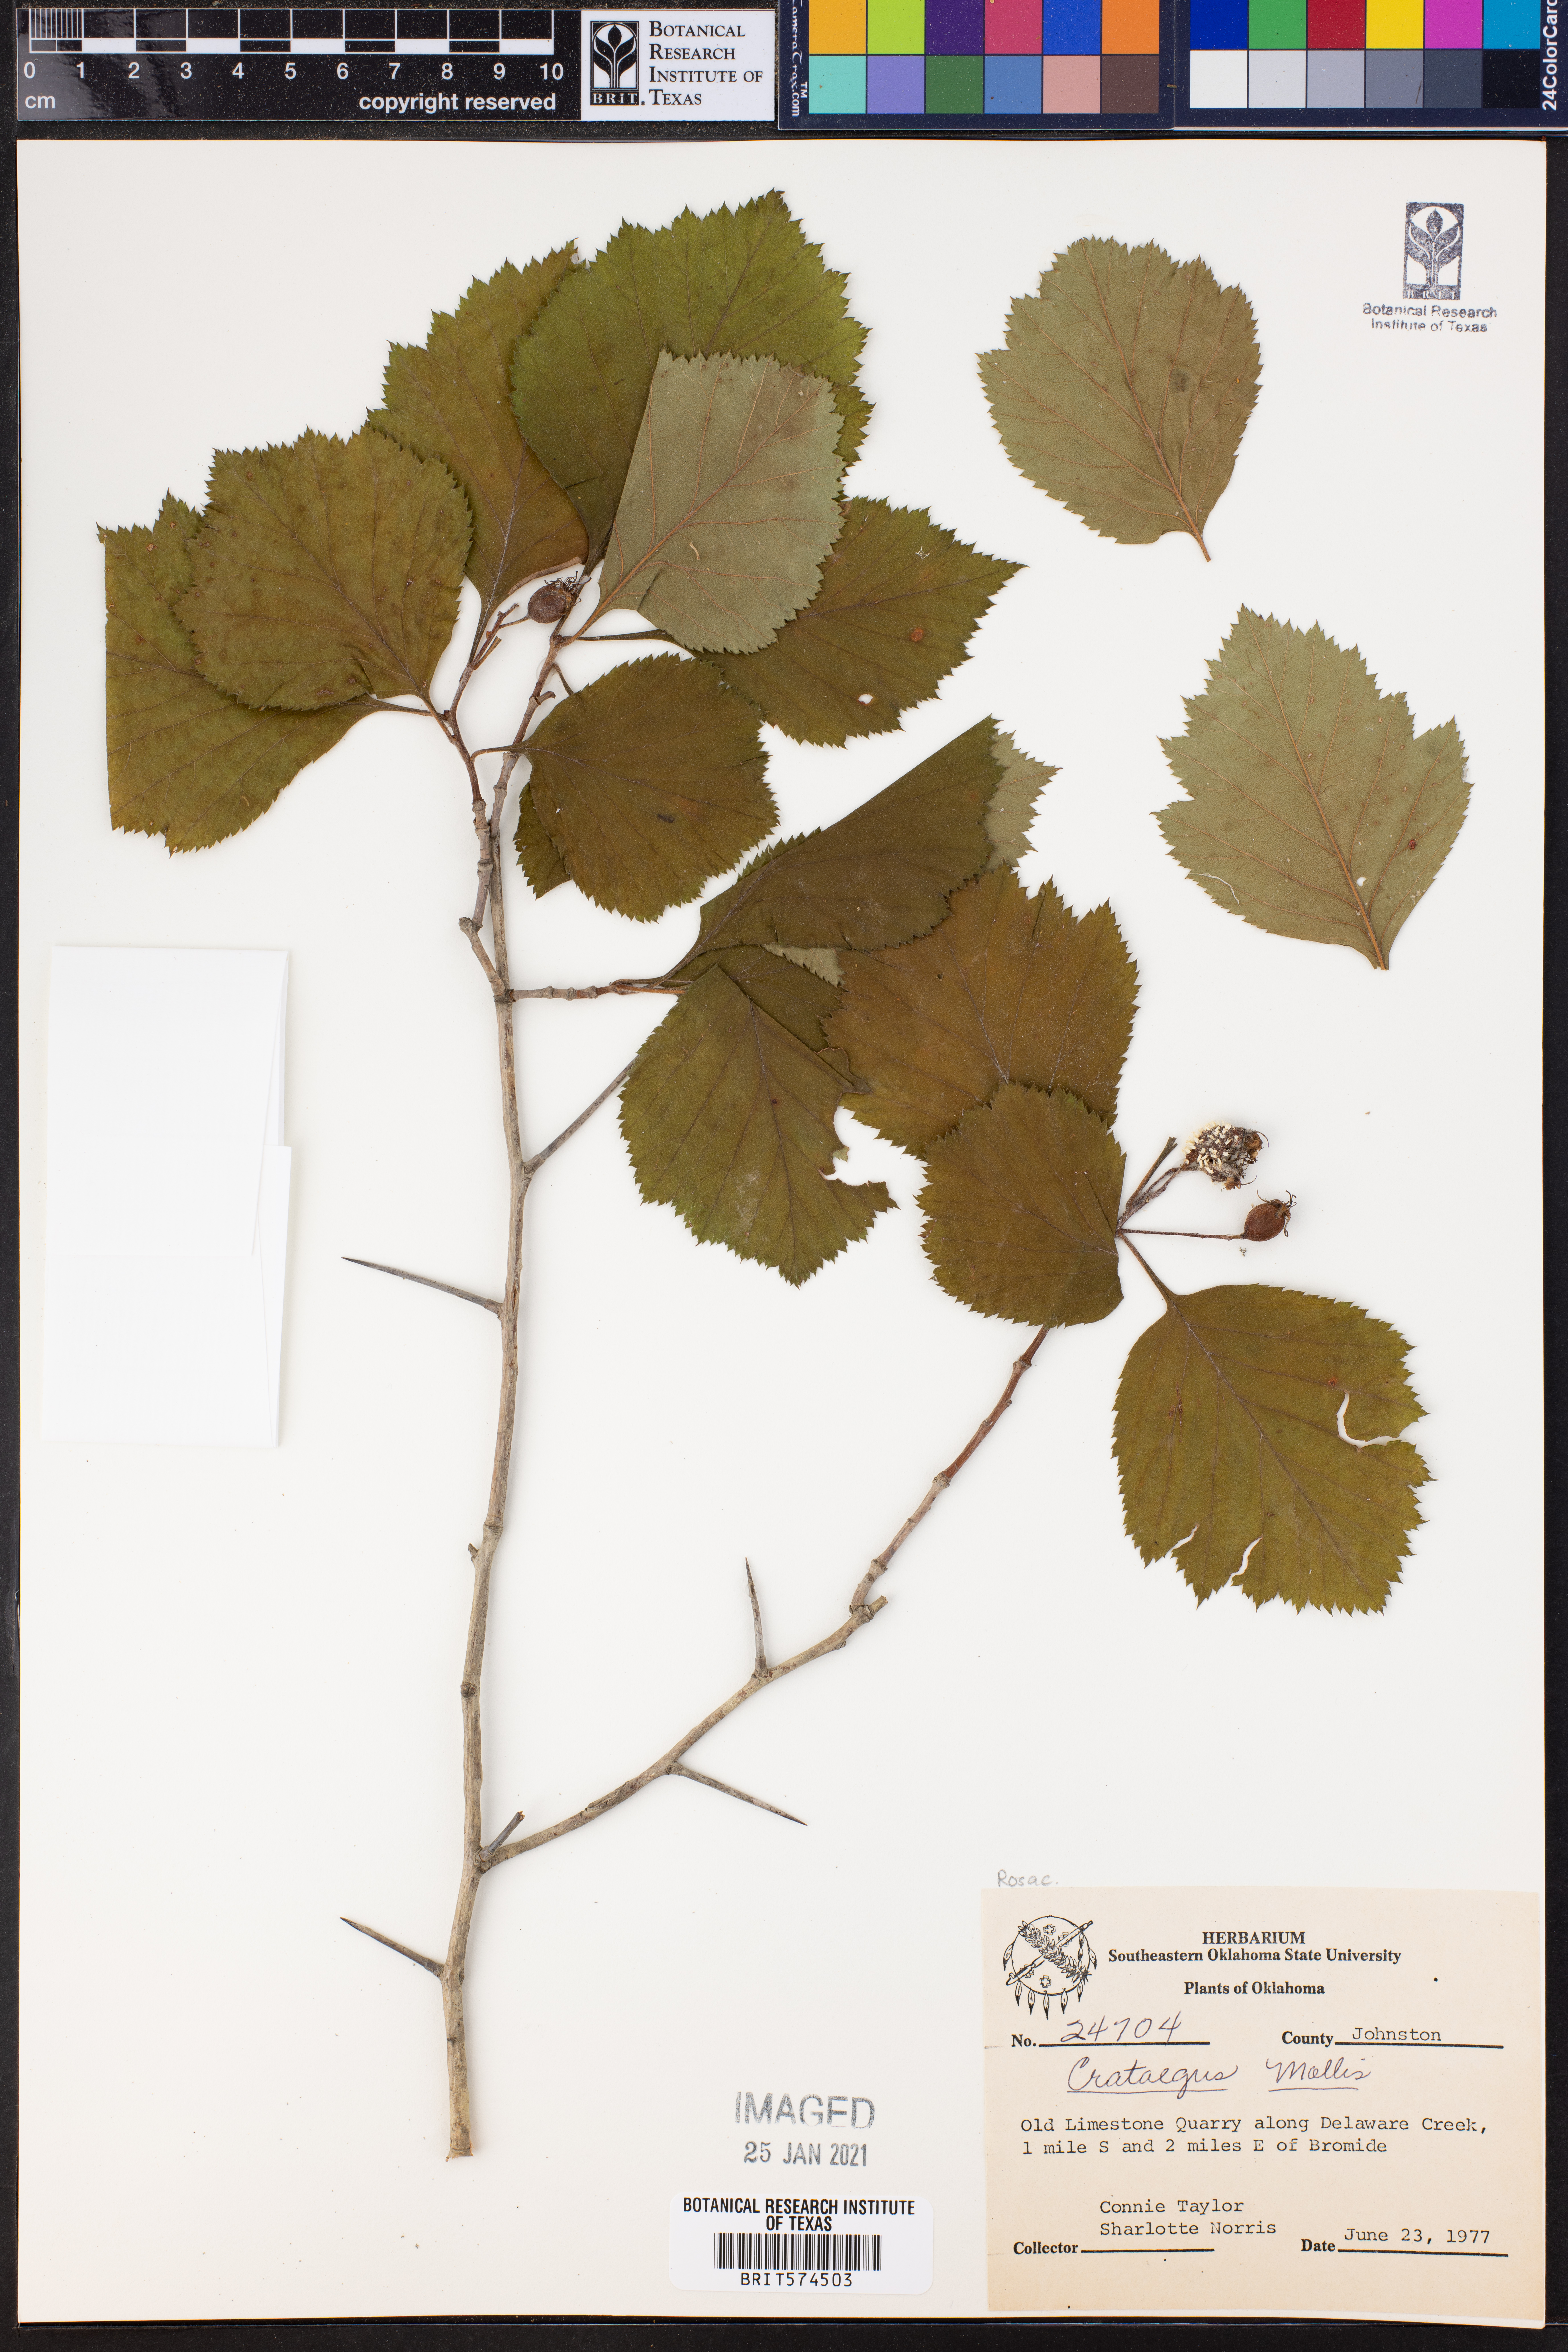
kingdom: Plantae
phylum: Tracheophyta
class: Magnoliopsida
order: Rosales
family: Rosaceae
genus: Crataegus
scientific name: Crataegus mollis
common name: Downy hawthorn
